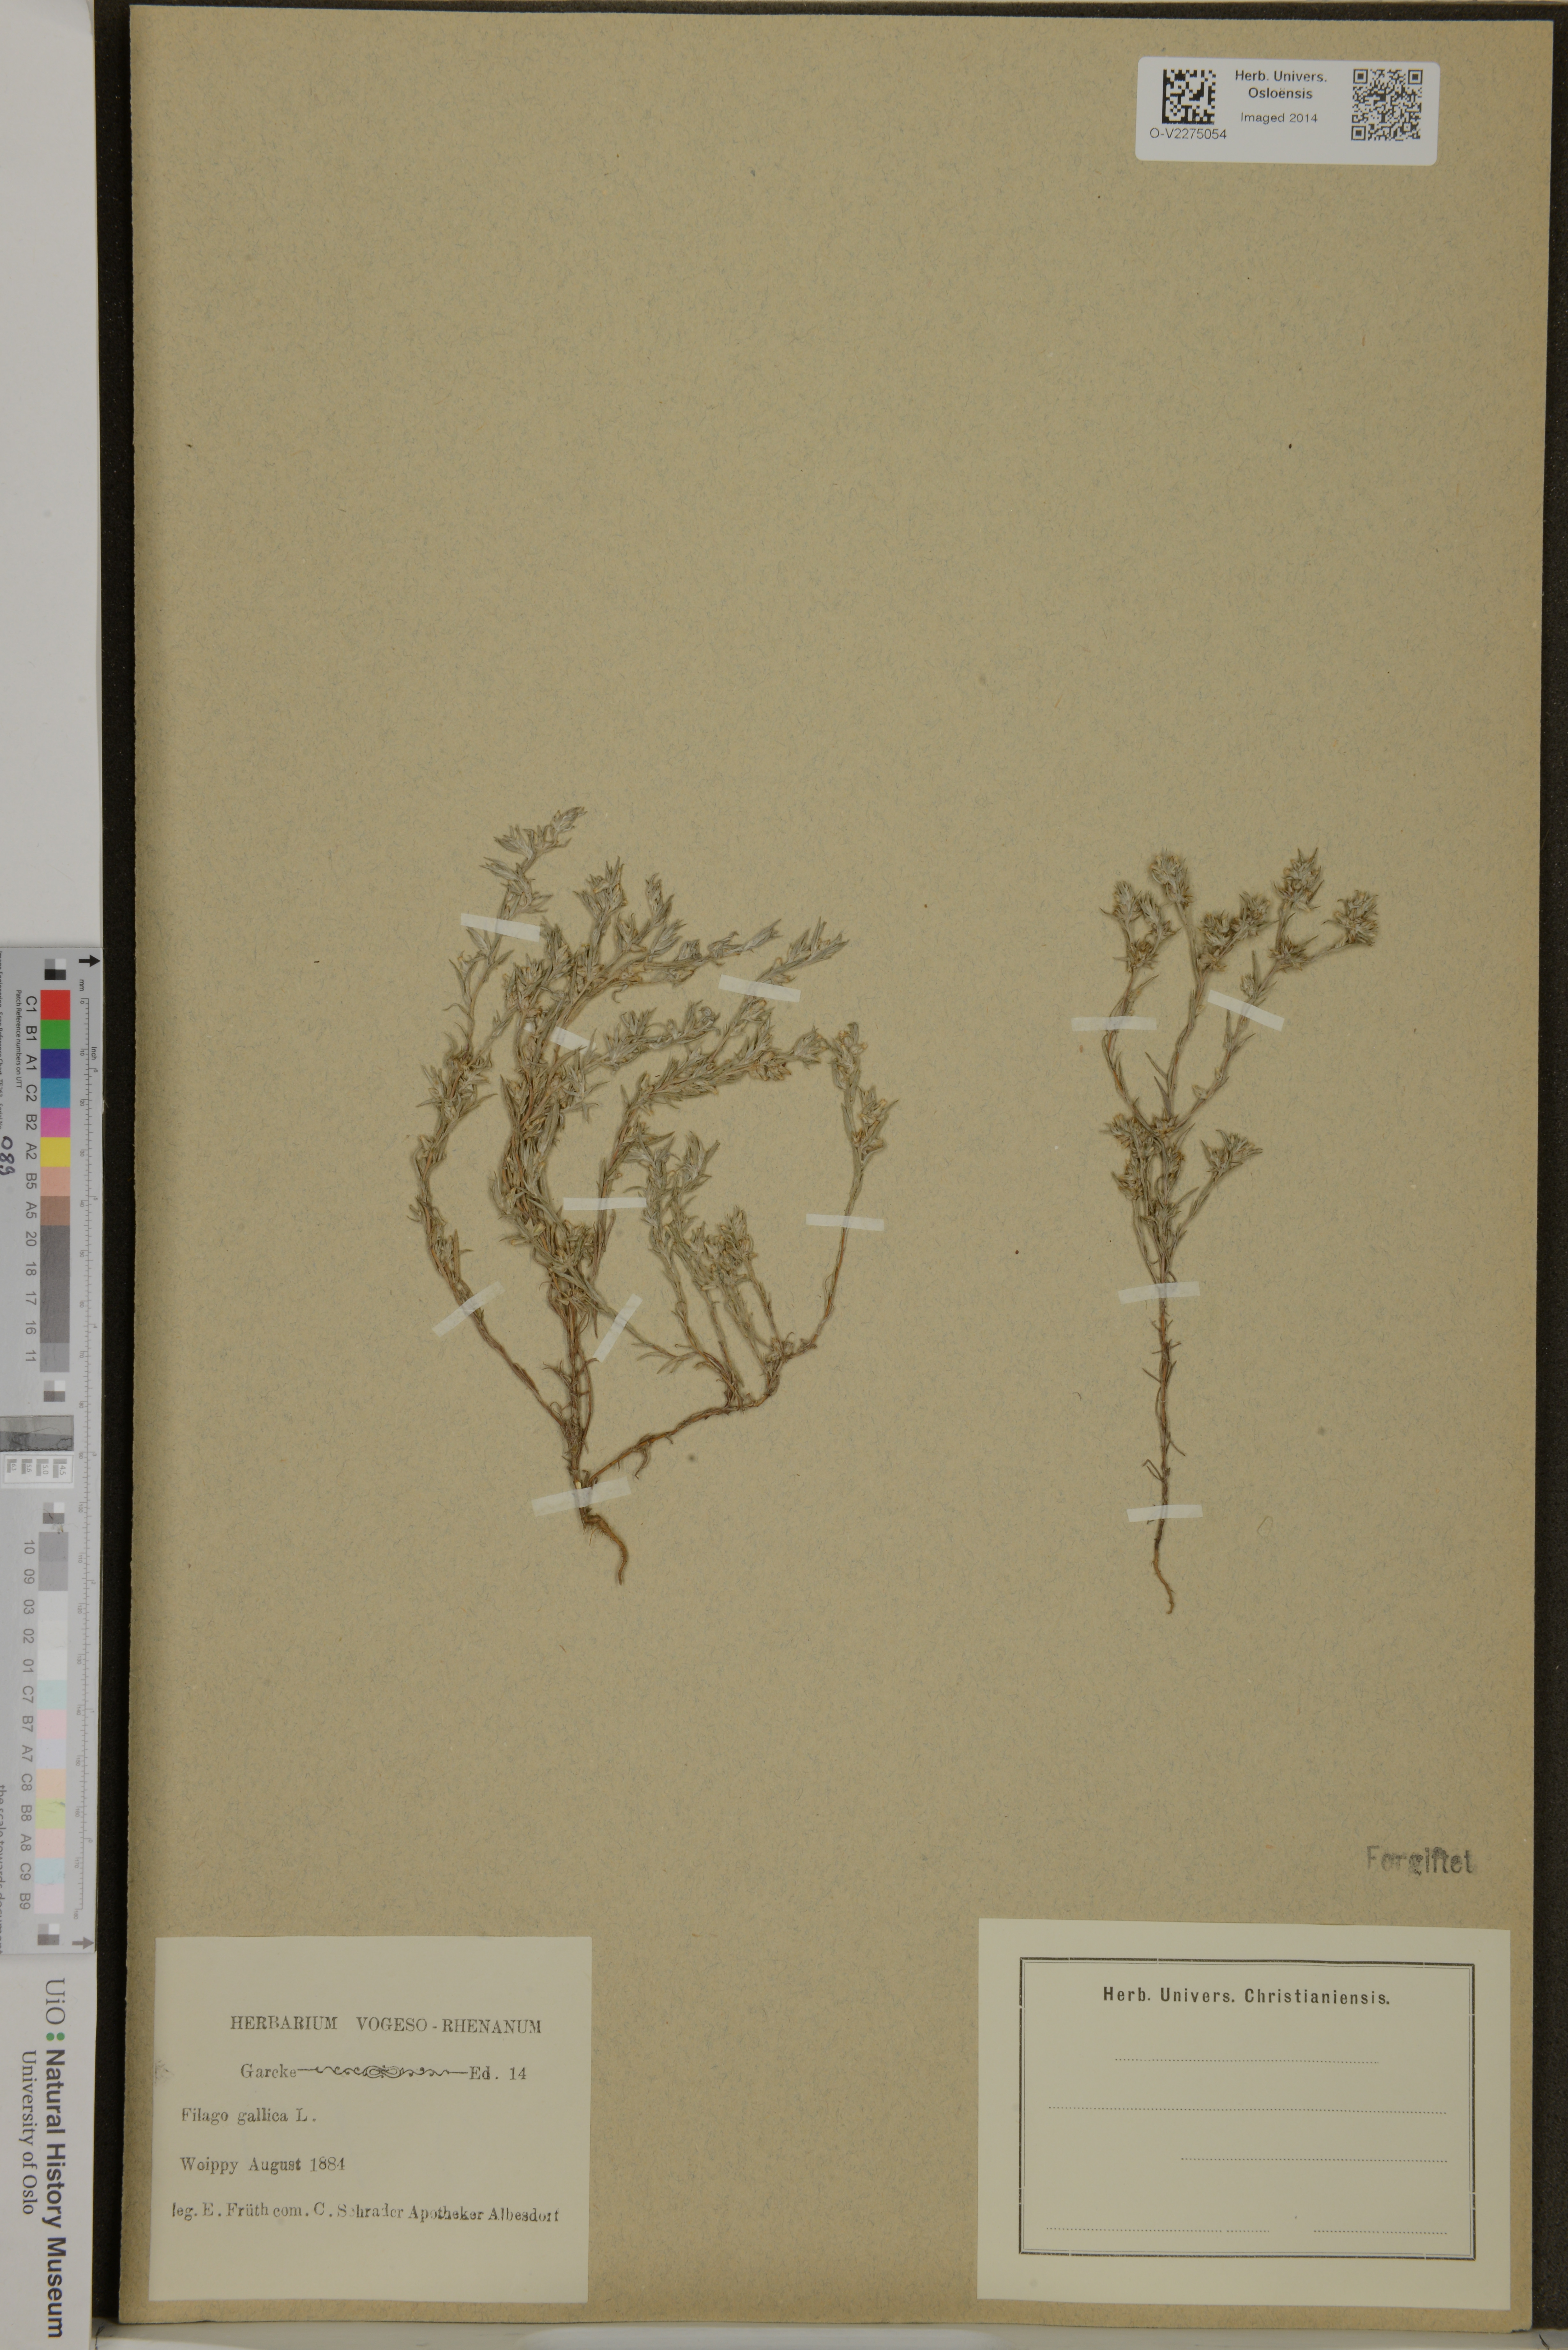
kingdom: Plantae
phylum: Tracheophyta
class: Magnoliopsida
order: Asterales
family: Asteraceae
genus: Logfia
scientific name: Logfia gallica
